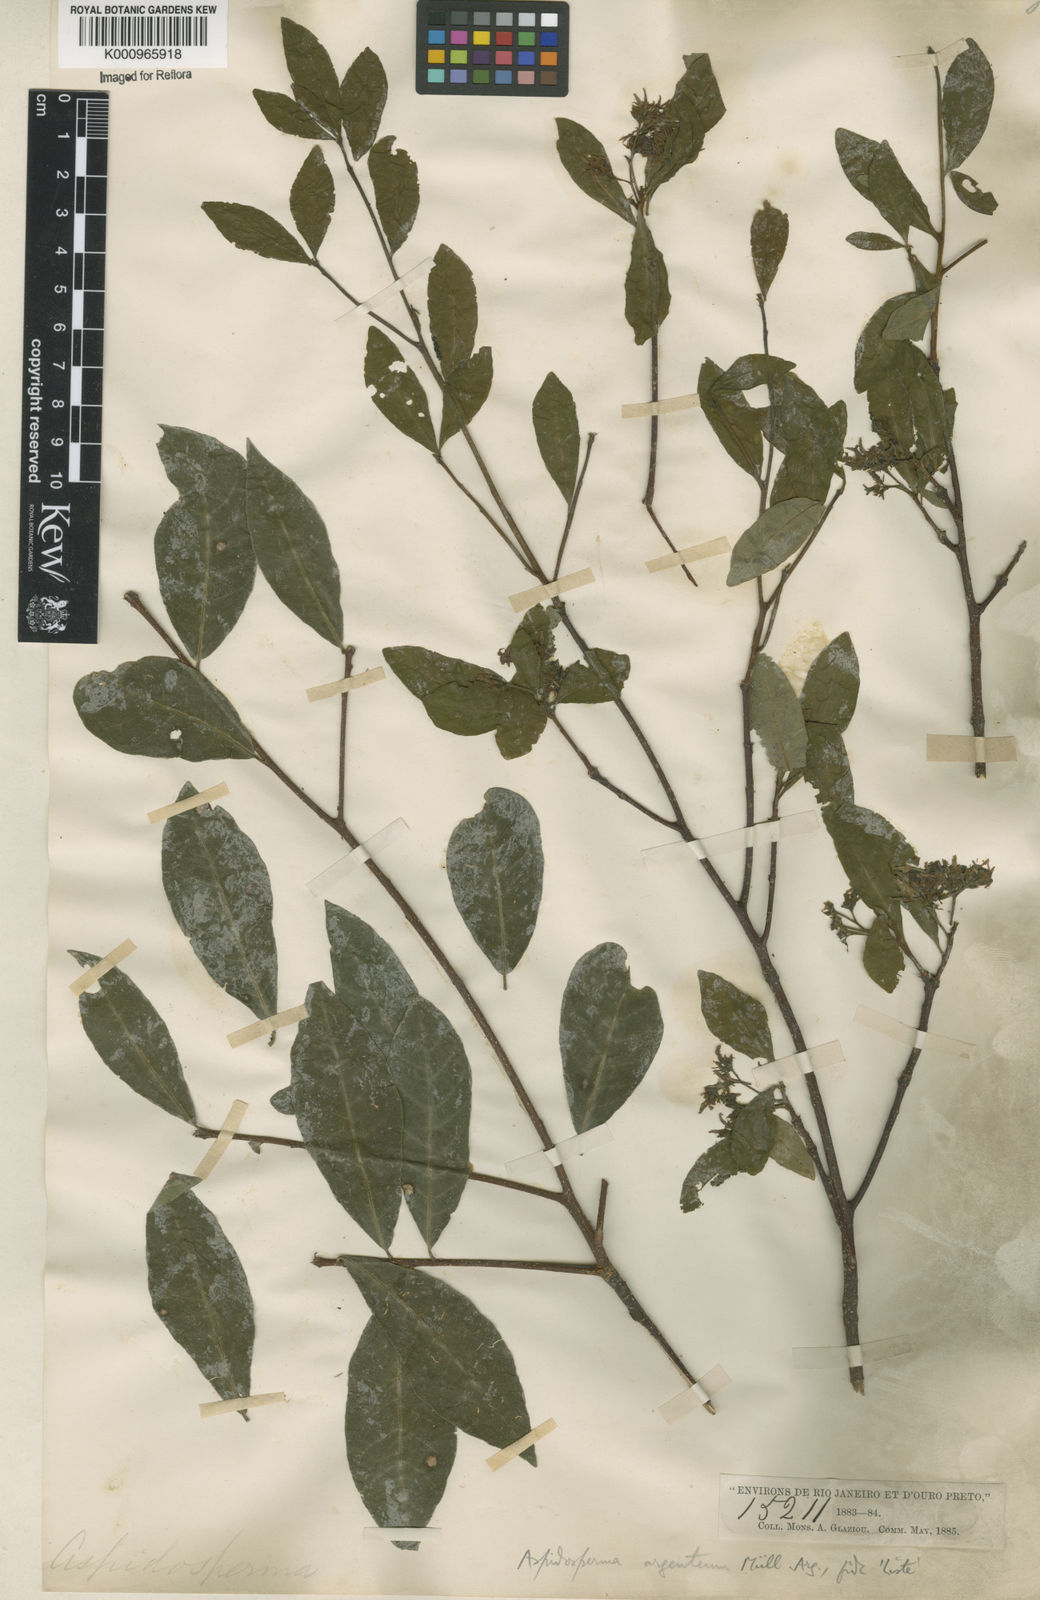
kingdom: Plantae
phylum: Tracheophyta
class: Magnoliopsida
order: Gentianales
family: Apocynaceae
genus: Aspidosperma
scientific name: Aspidosperma
